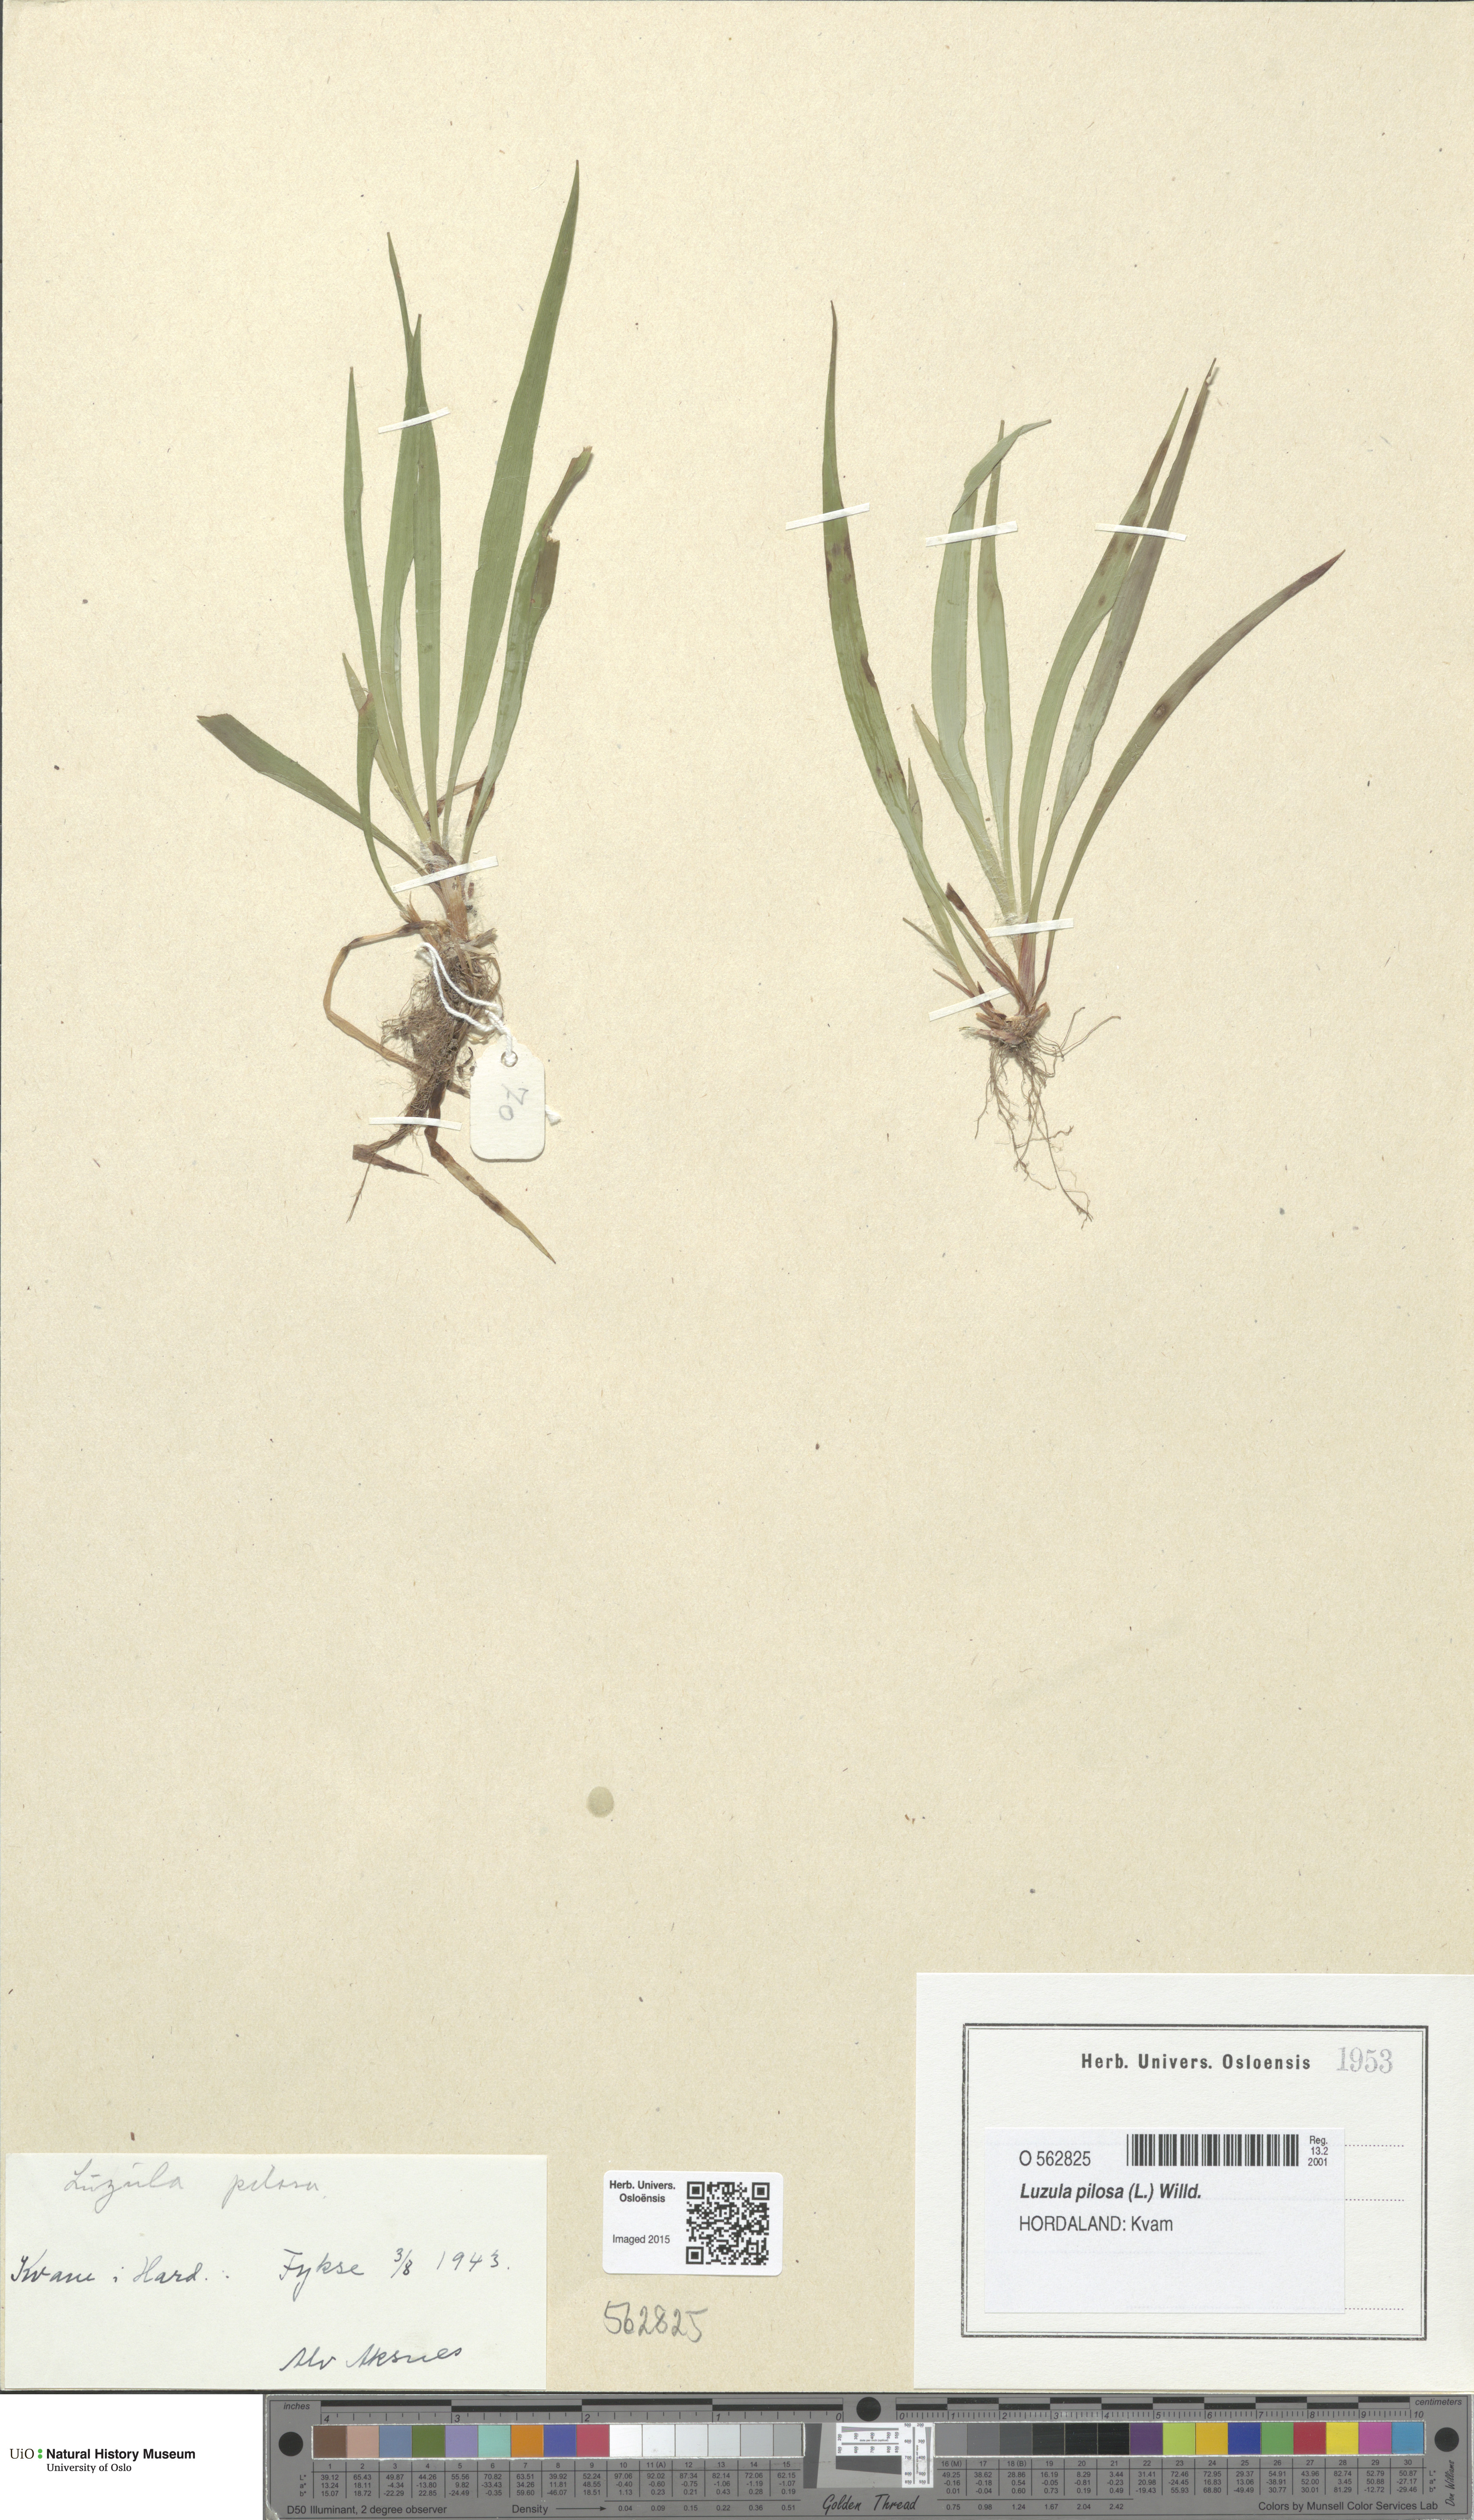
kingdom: Plantae
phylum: Tracheophyta
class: Liliopsida
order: Poales
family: Juncaceae
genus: Luzula
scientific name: Luzula pilosa
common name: Hairy wood-rush
